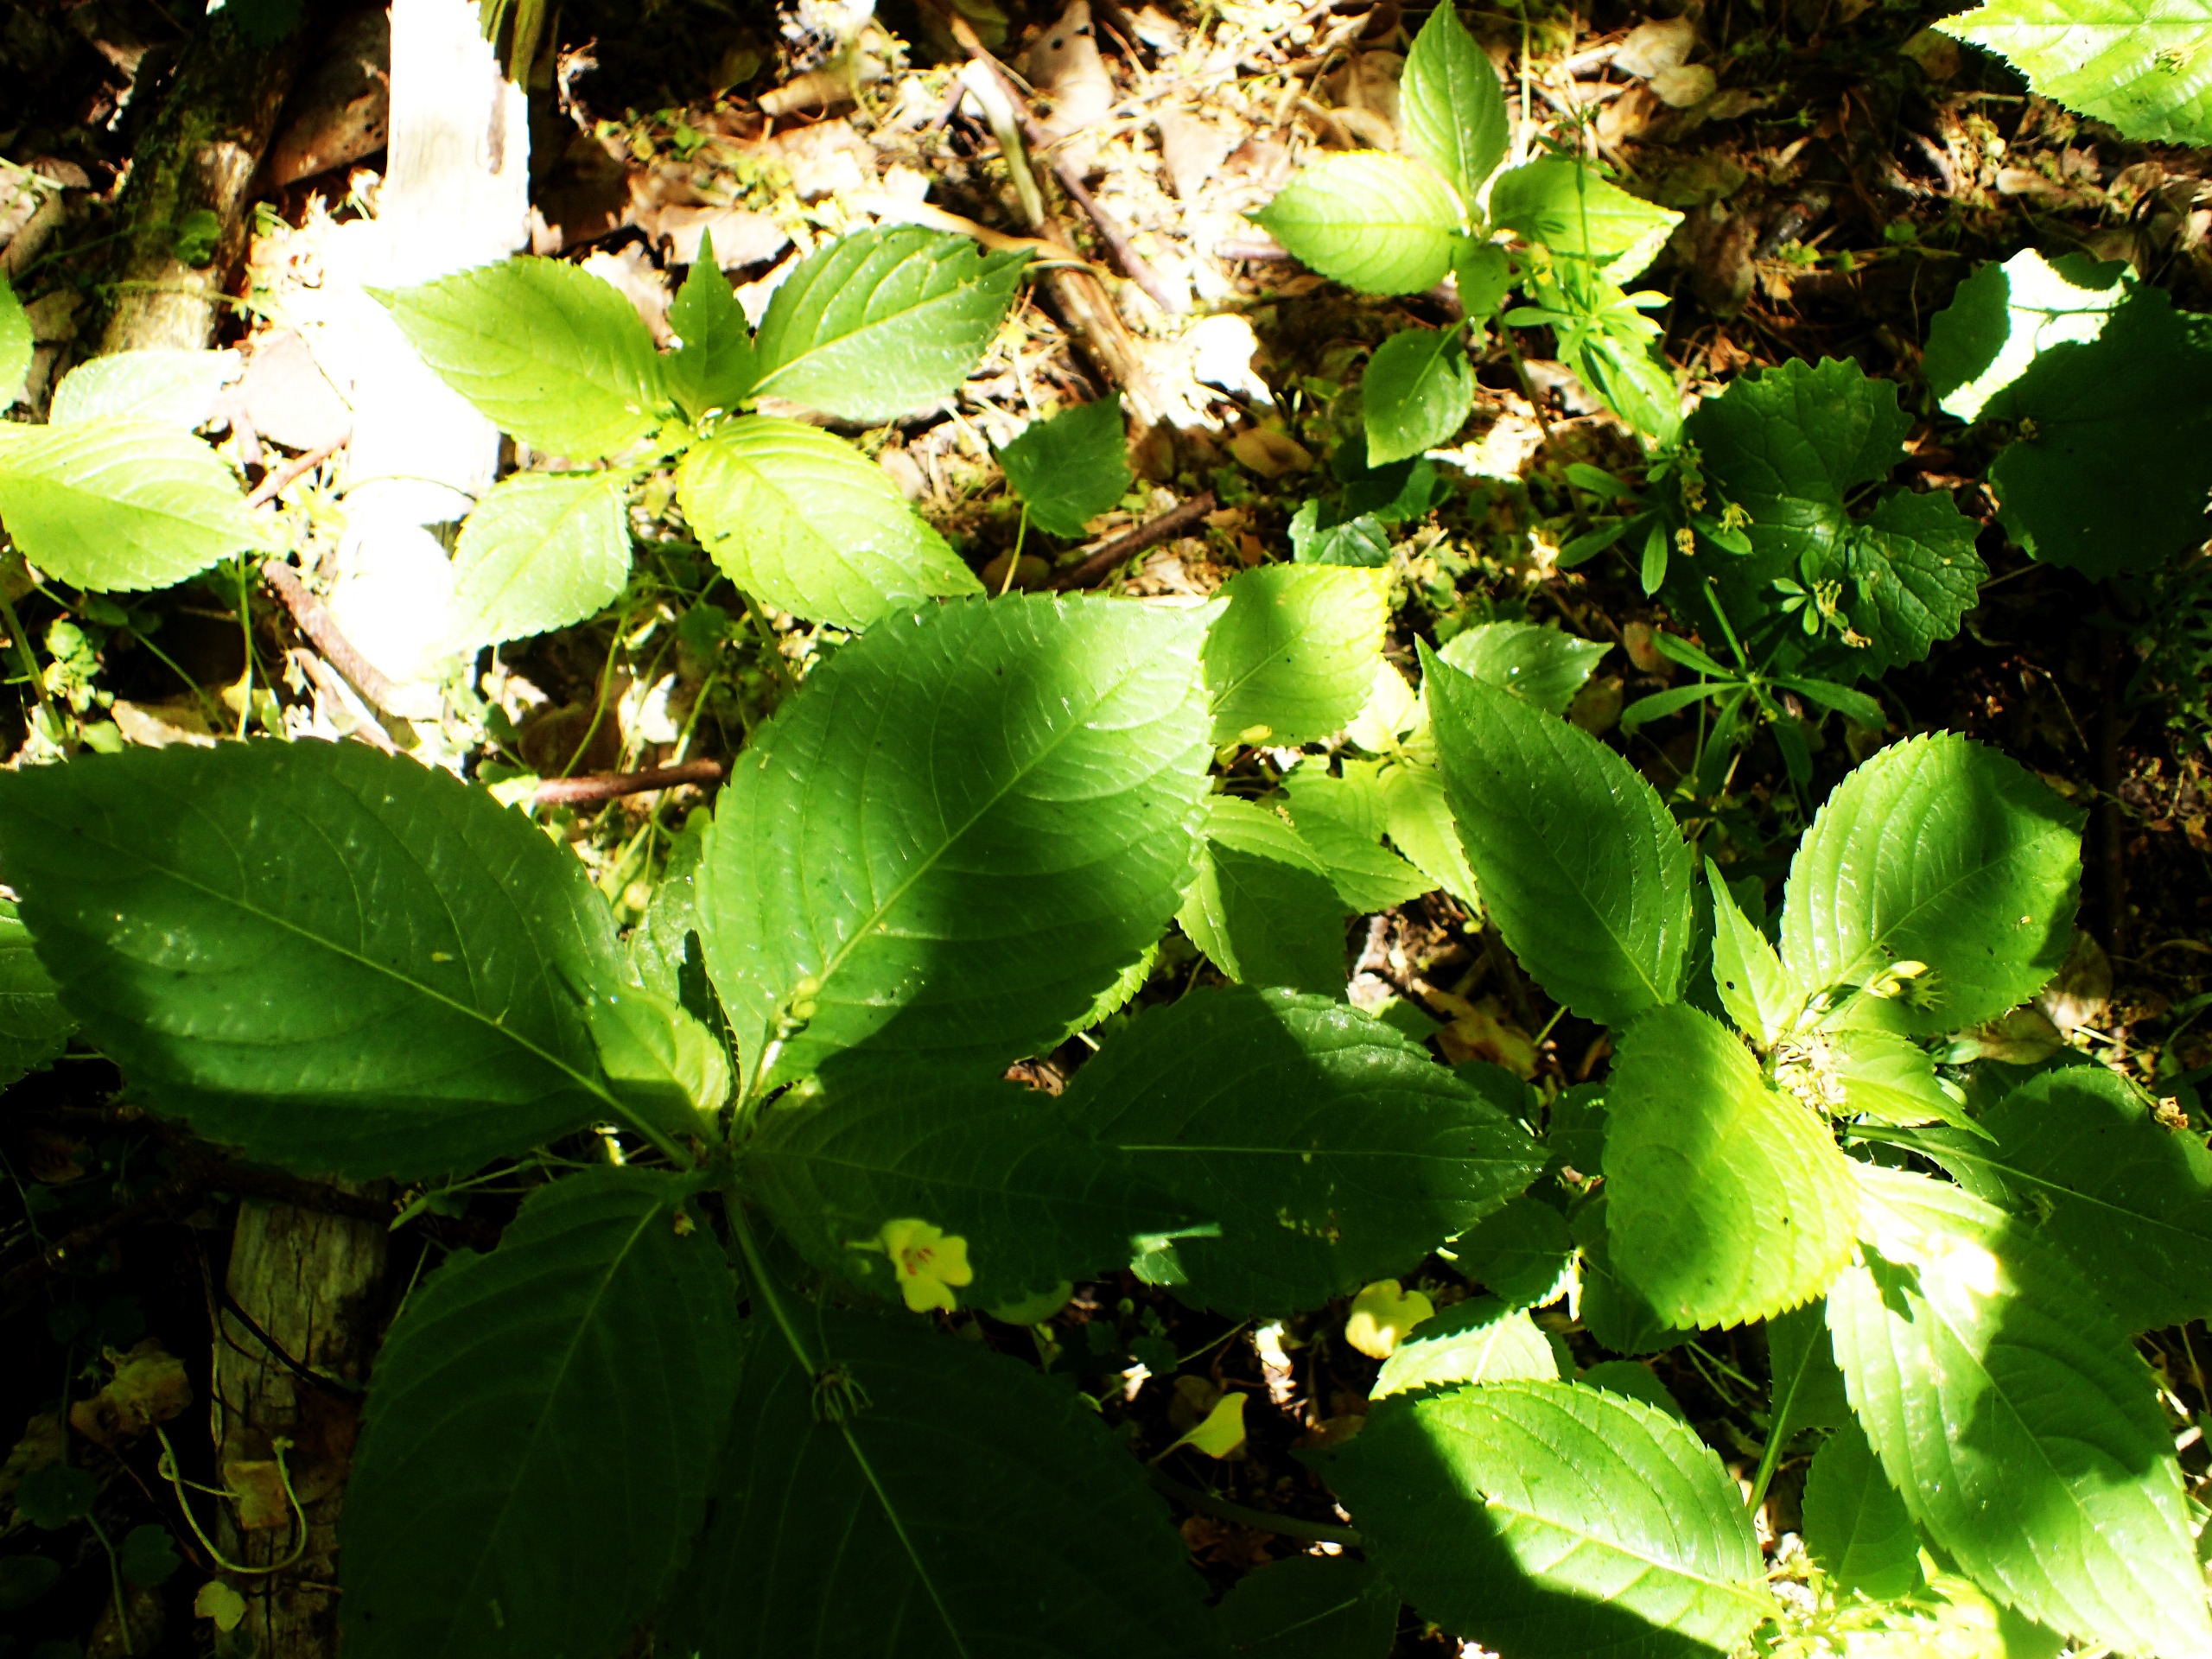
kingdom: Plantae
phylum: Tracheophyta
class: Magnoliopsida
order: Ericales
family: Balsaminaceae
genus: Impatiens
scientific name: Impatiens parviflora
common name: Småblomstret balsamin
